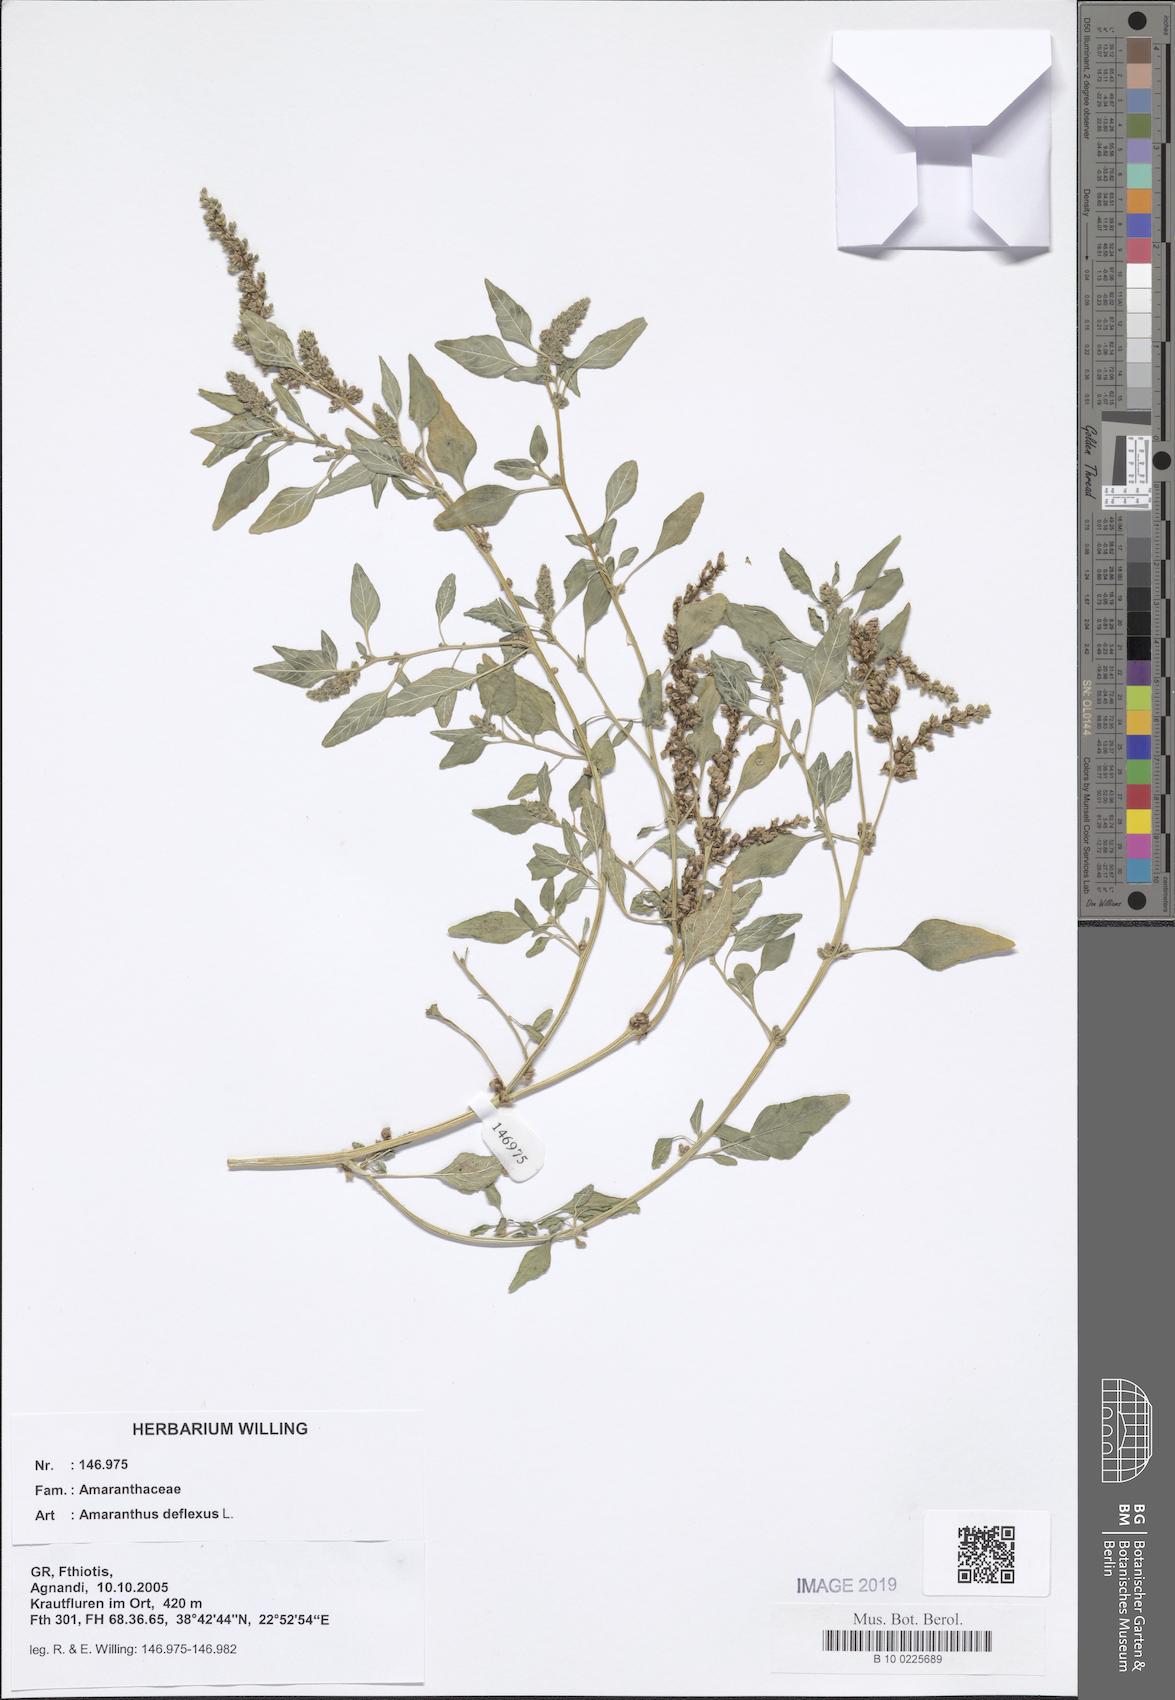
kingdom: Plantae
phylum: Tracheophyta
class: Magnoliopsida
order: Caryophyllales
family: Amaranthaceae
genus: Amaranthus
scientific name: Amaranthus deflexus
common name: Perennial pigweed
